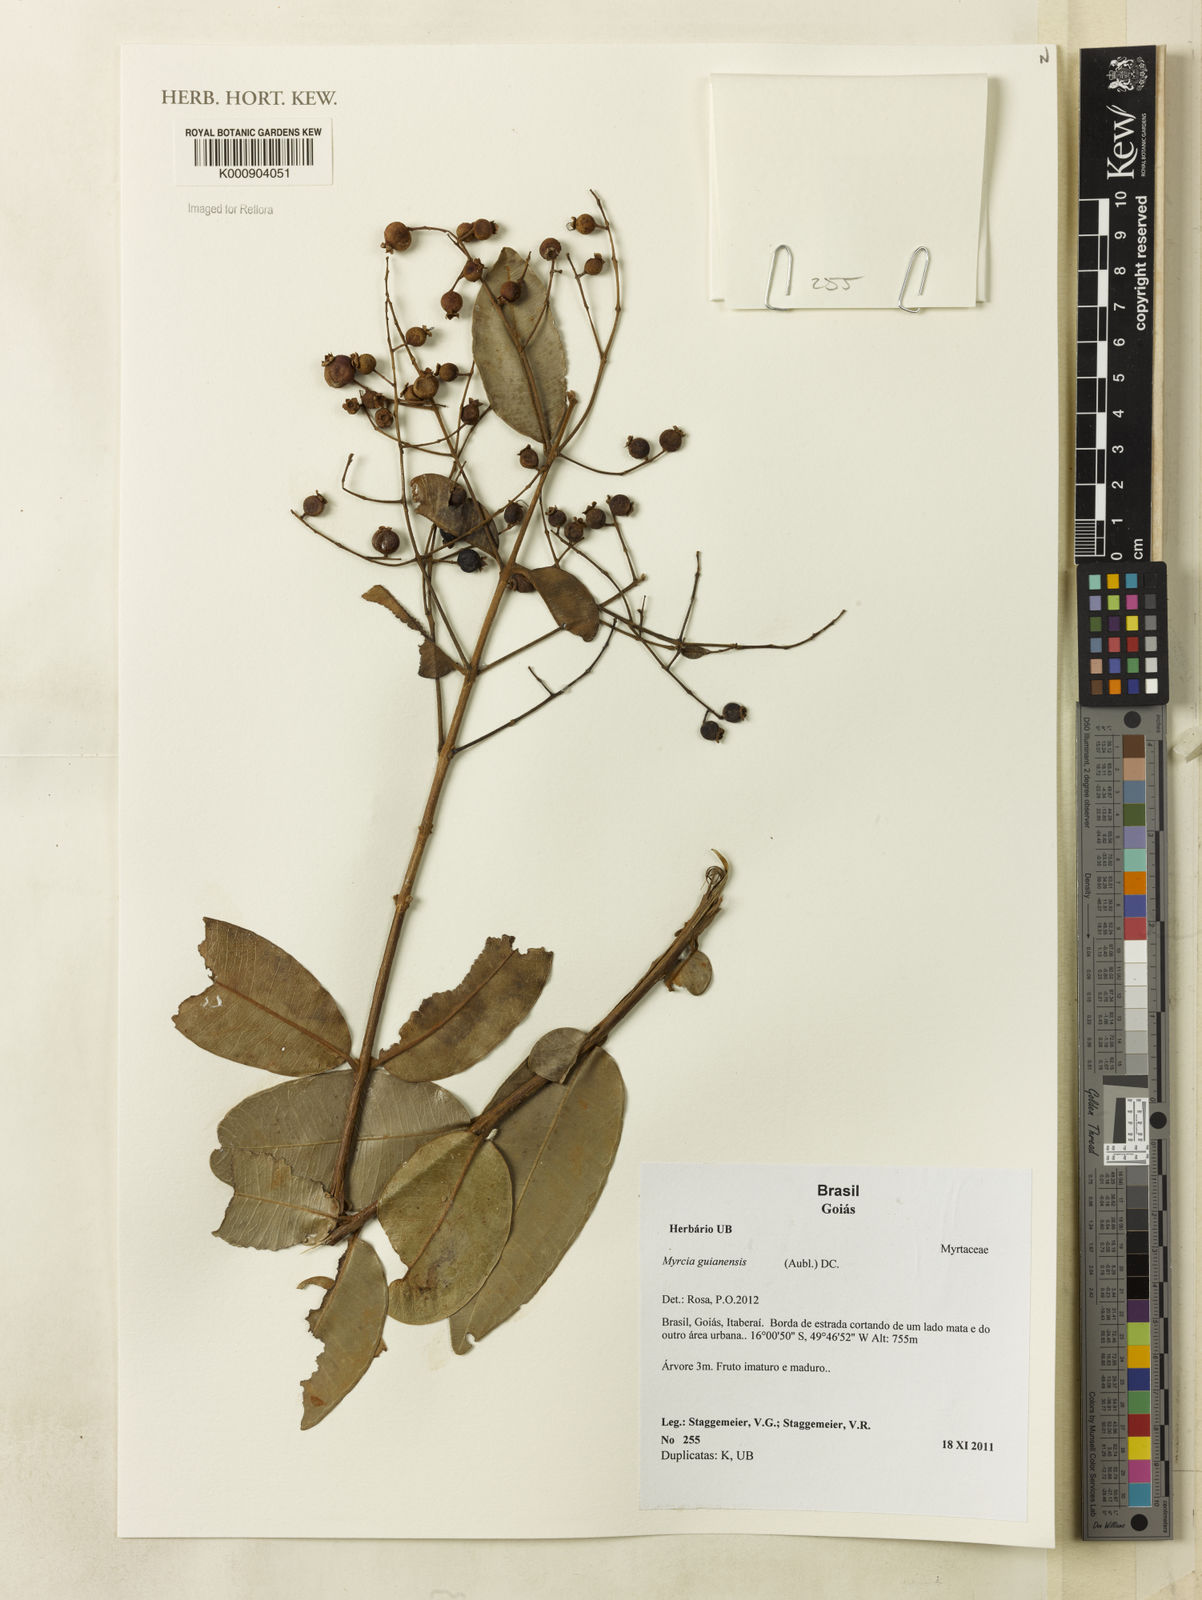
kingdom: Plantae
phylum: Tracheophyta
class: Magnoliopsida
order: Myrtales
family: Myrtaceae
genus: Myrcia
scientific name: Myrcia guianensis
